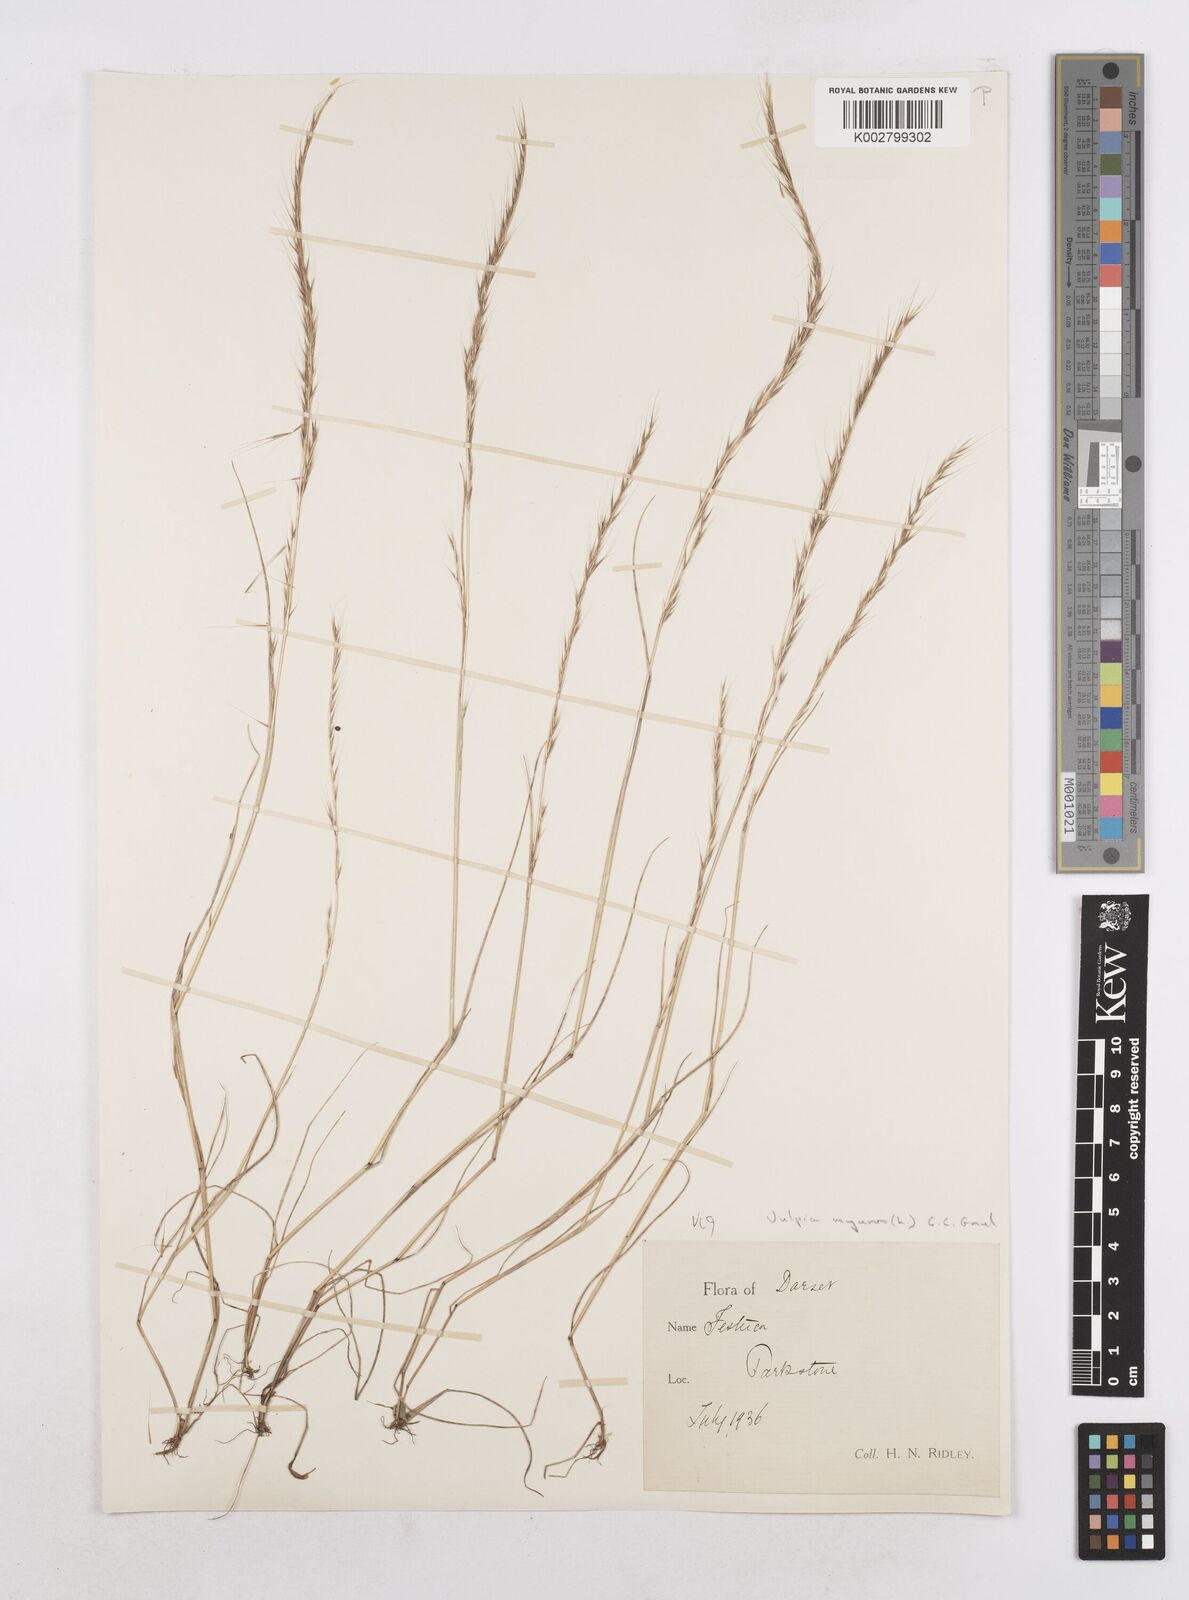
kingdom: Plantae
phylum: Tracheophyta
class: Liliopsida
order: Poales
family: Poaceae
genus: Festuca
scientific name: Festuca myuros
